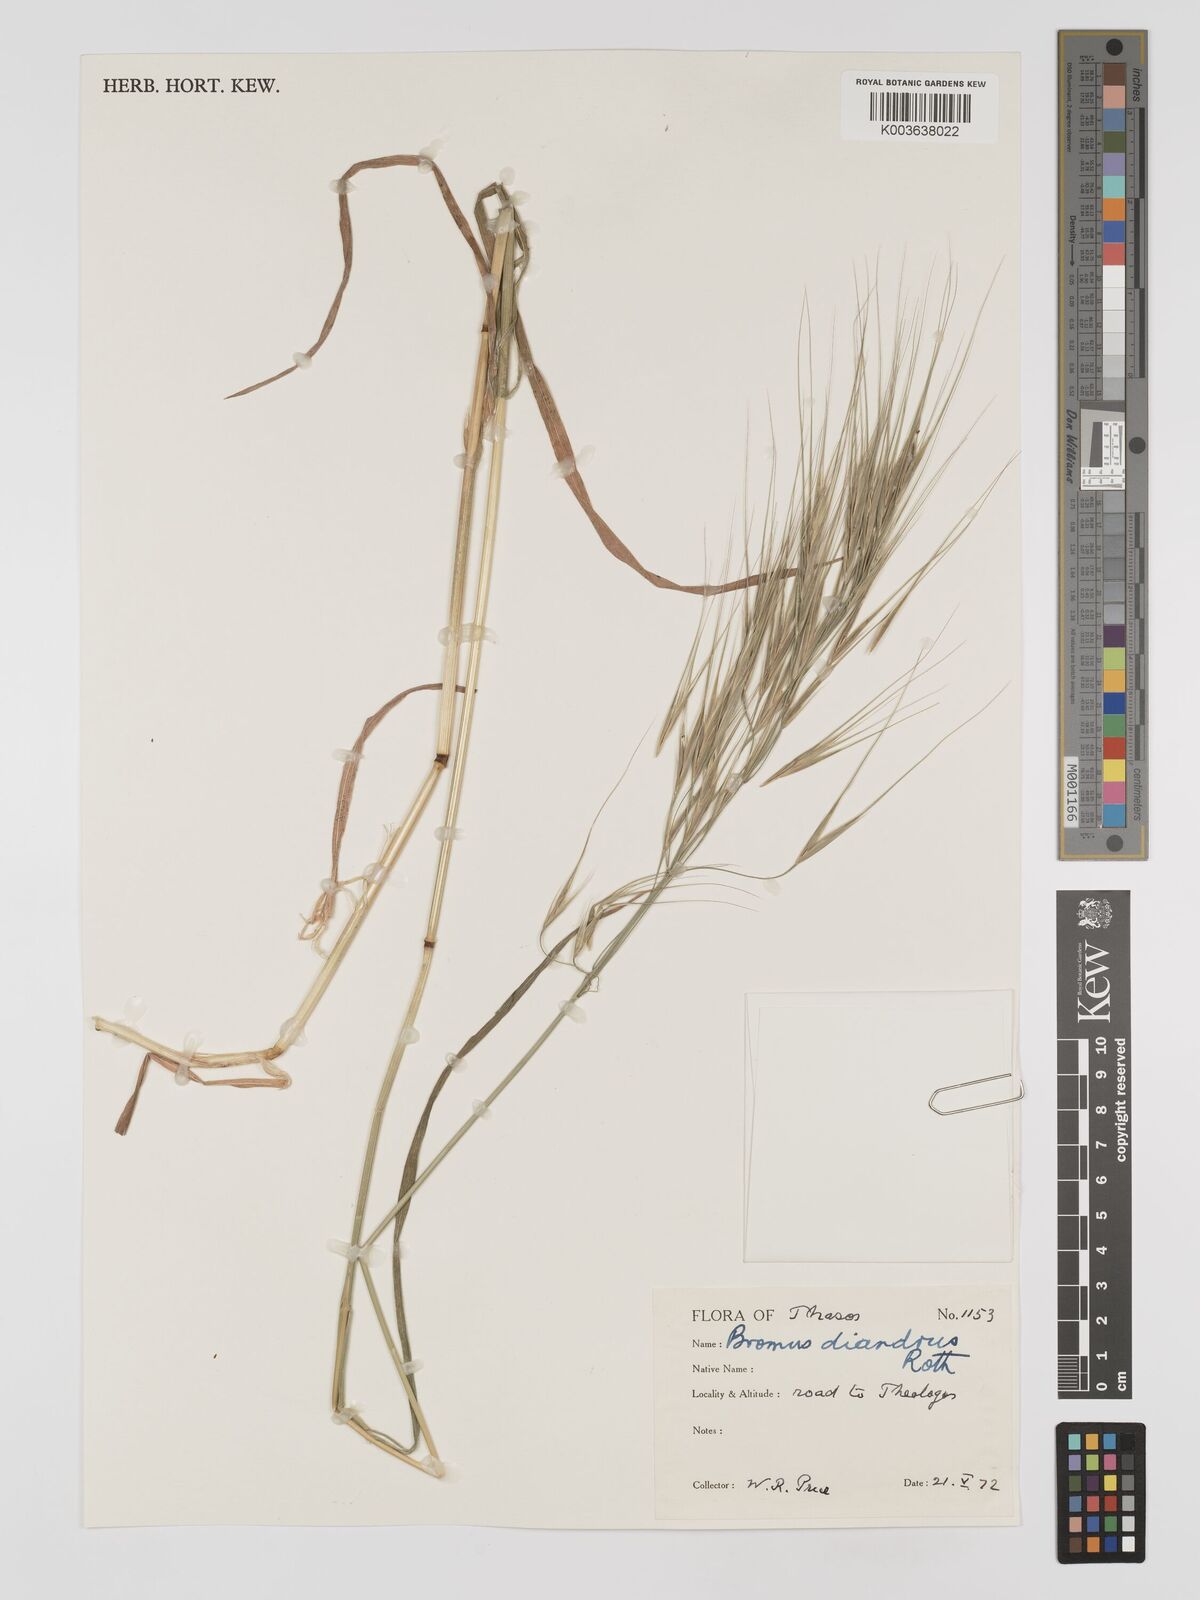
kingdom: Plantae
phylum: Tracheophyta
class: Liliopsida
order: Poales
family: Poaceae
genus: Bromus
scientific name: Bromus
